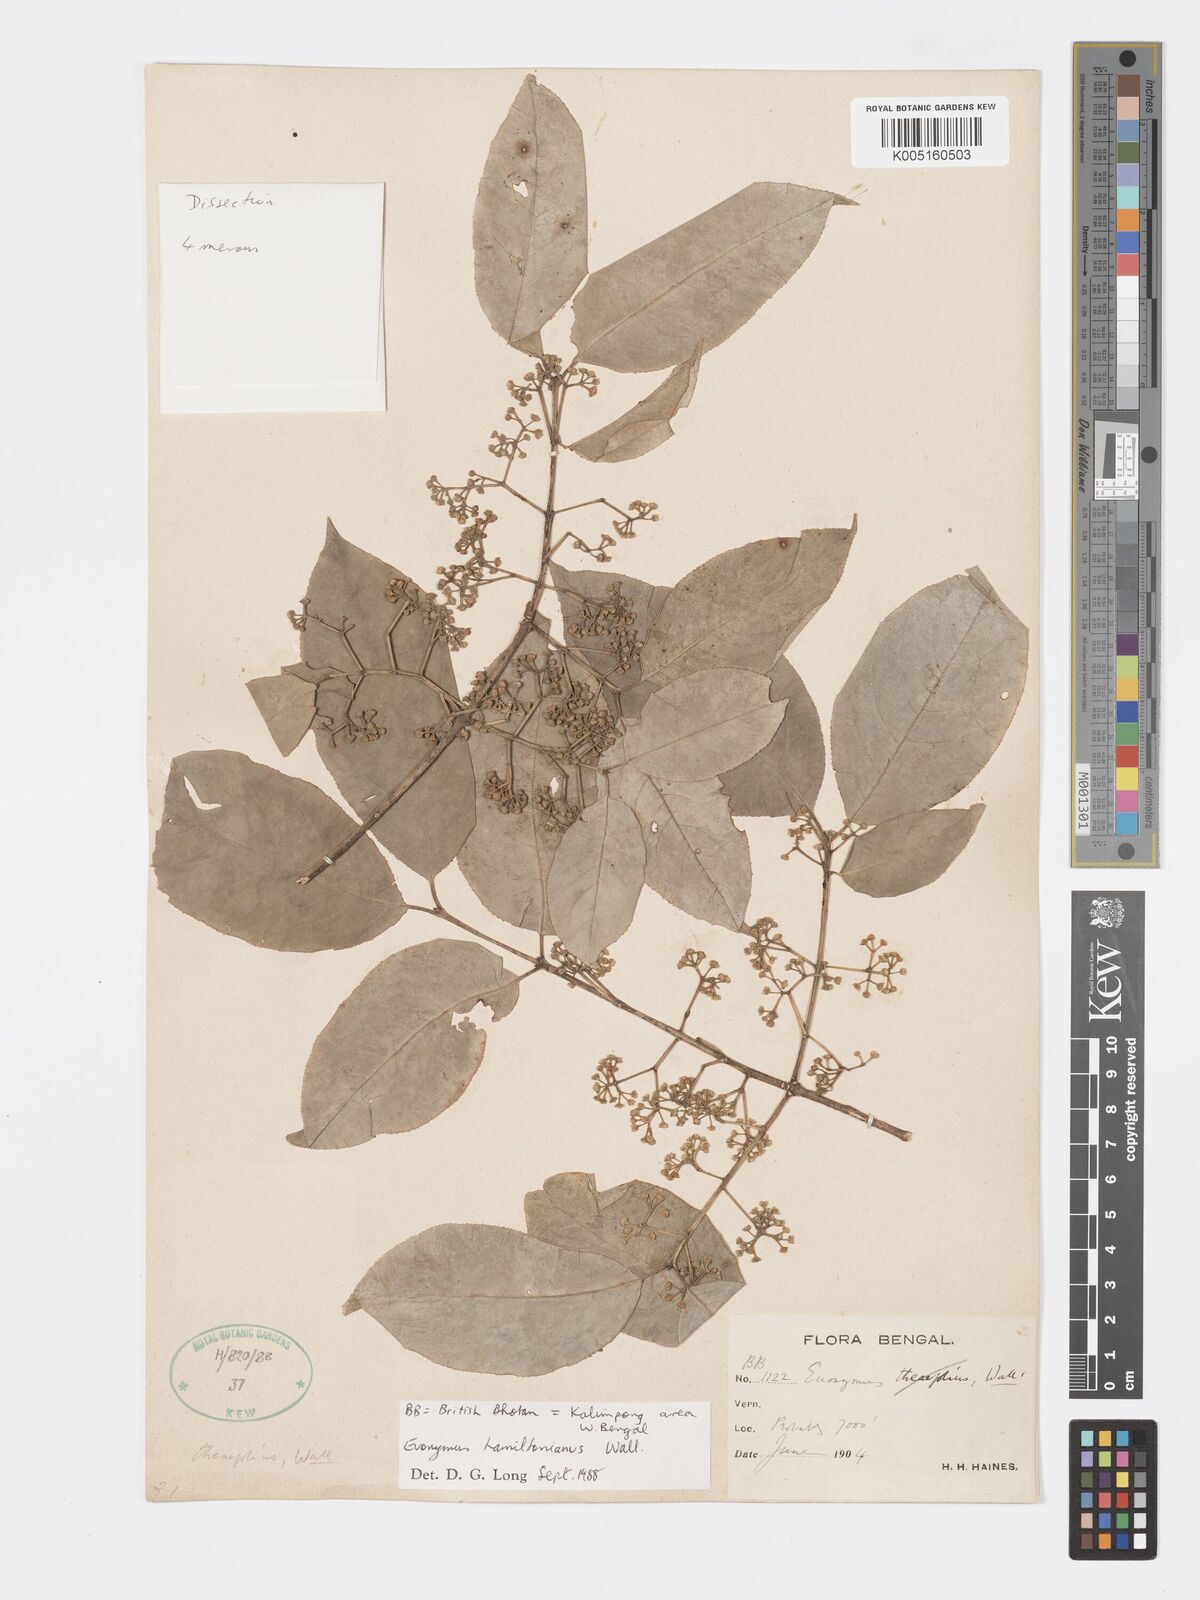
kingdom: Plantae
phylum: Tracheophyta
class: Magnoliopsida
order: Celastrales
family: Celastraceae
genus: Euonymus
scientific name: Euonymus
